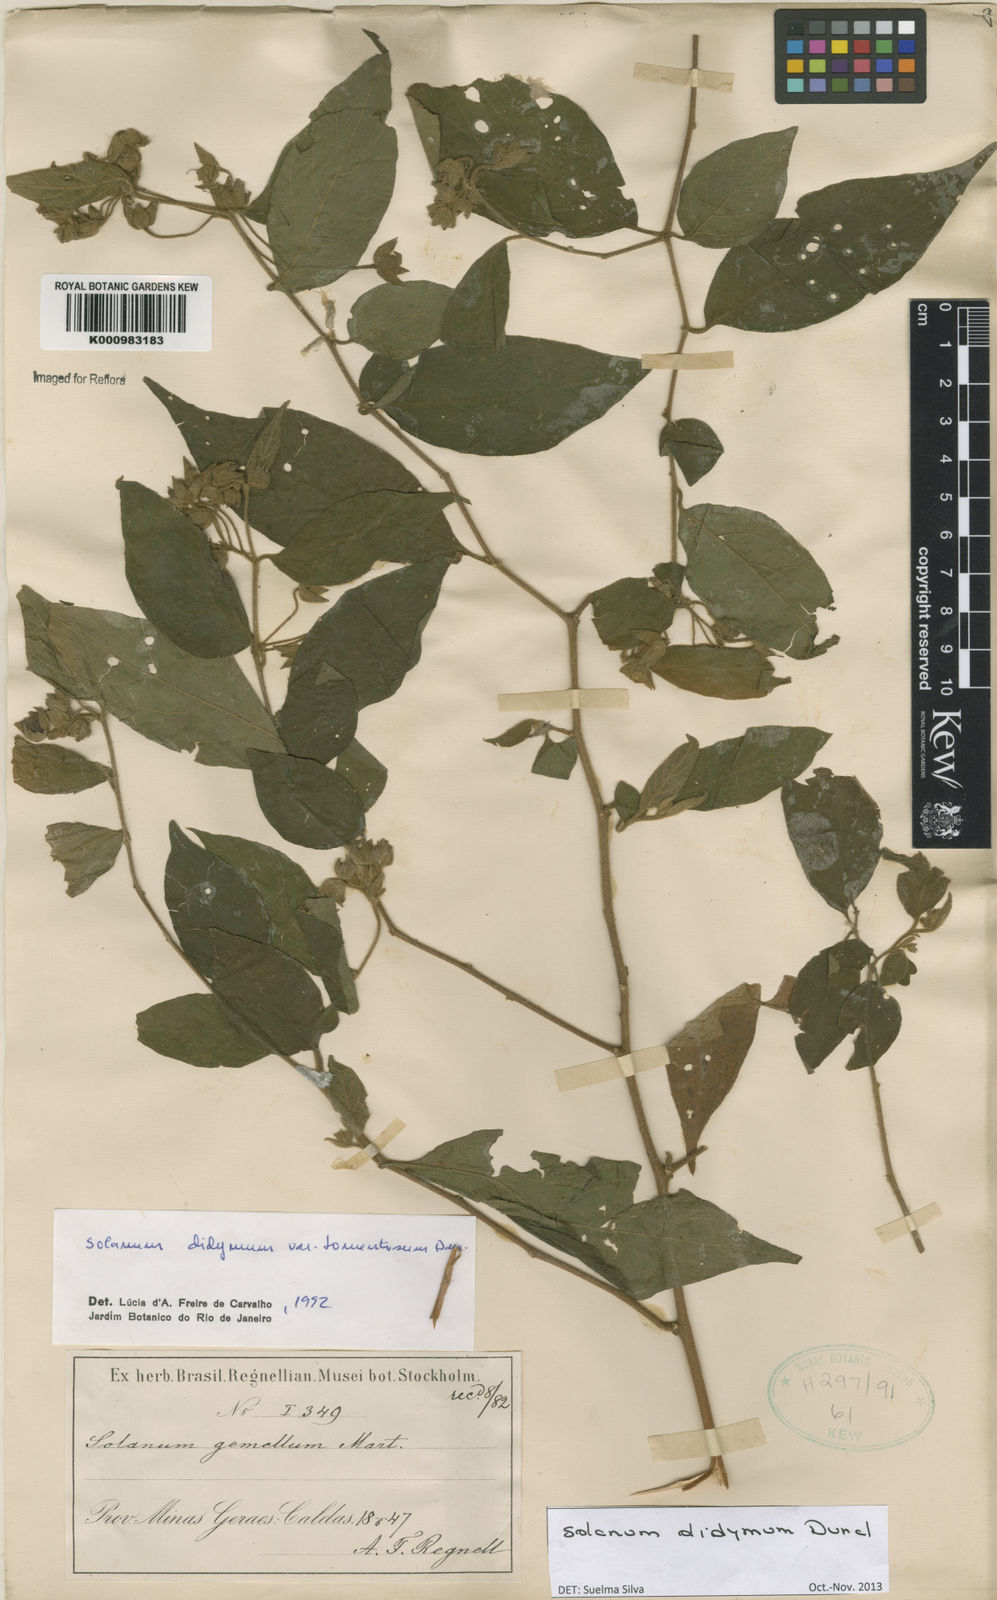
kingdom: Plantae
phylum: Tracheophyta
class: Magnoliopsida
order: Solanales
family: Solanaceae
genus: Solanum
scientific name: Solanum didymum
